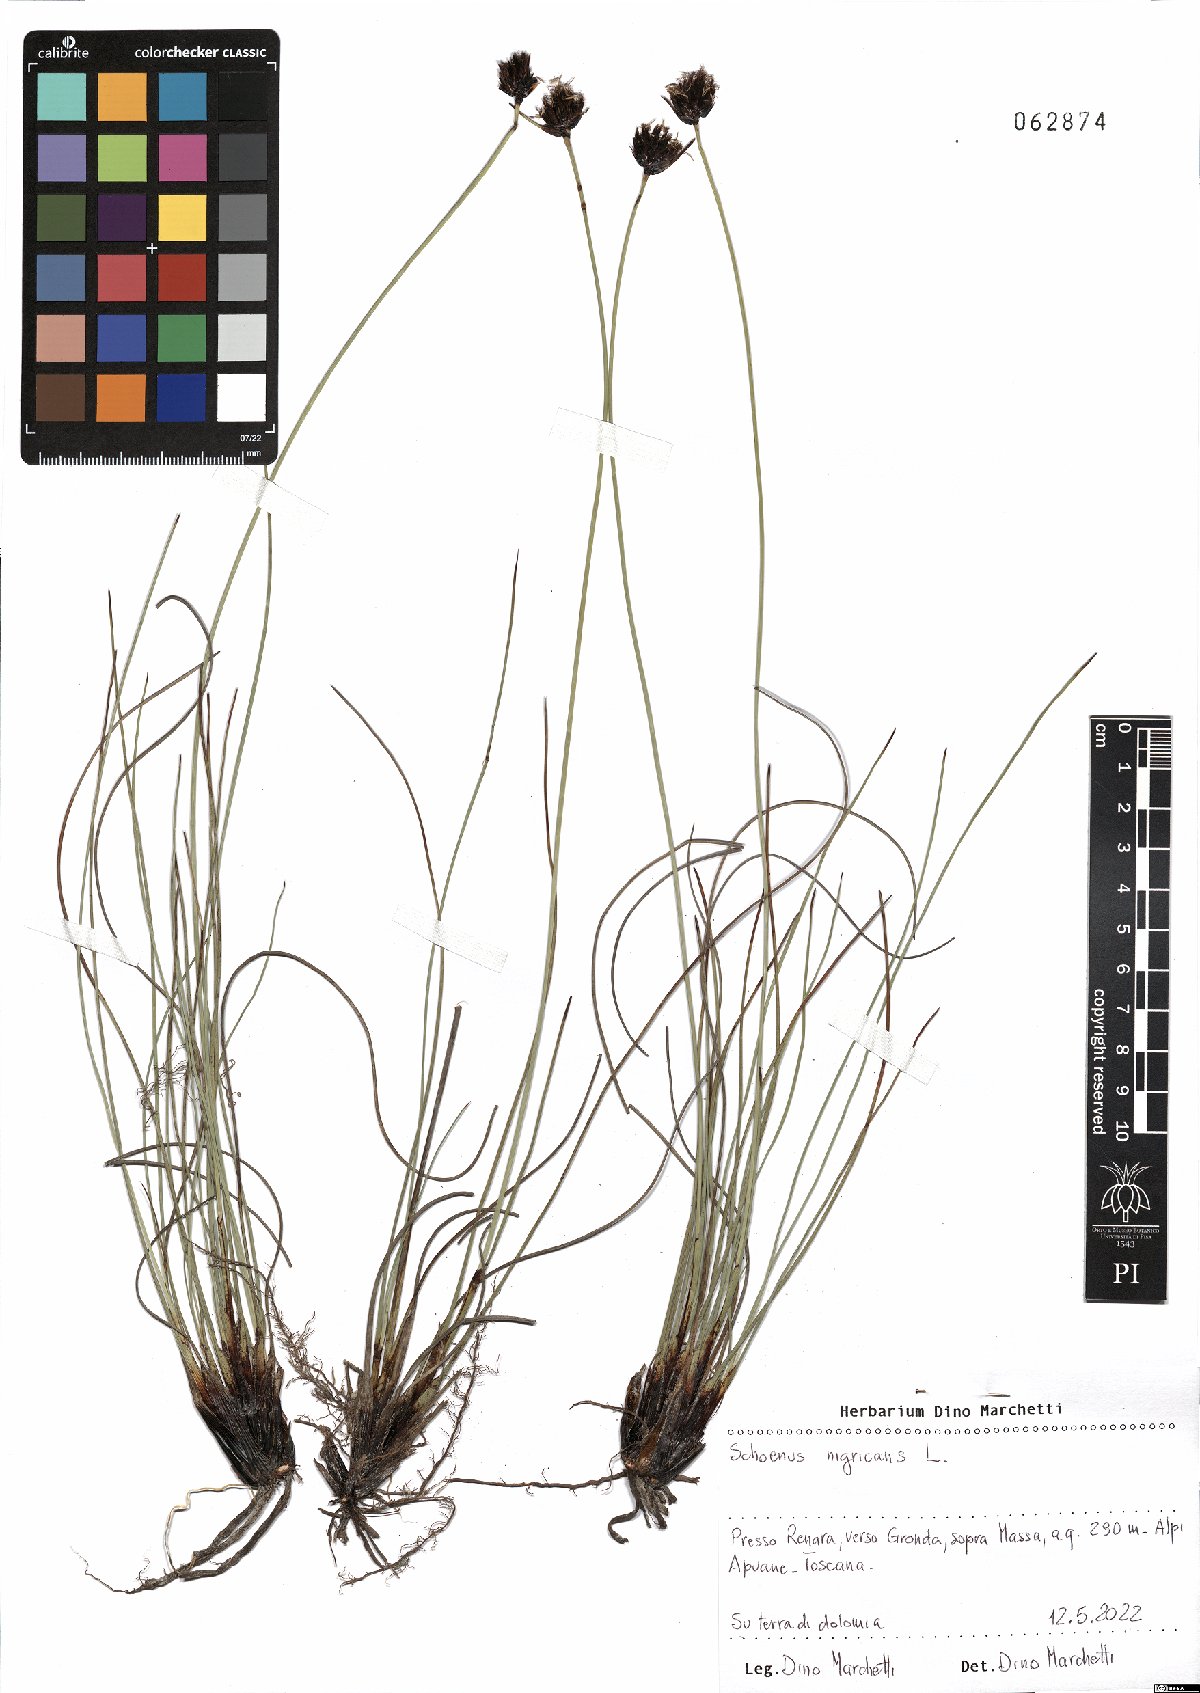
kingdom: Plantae
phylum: Tracheophyta
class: Liliopsida
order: Poales
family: Cyperaceae
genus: Schoenus
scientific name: Schoenus nigricans
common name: Black bog-rush
